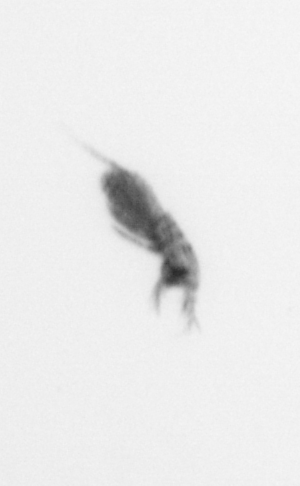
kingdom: Animalia
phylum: Arthropoda
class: Copepoda
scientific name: Copepoda
